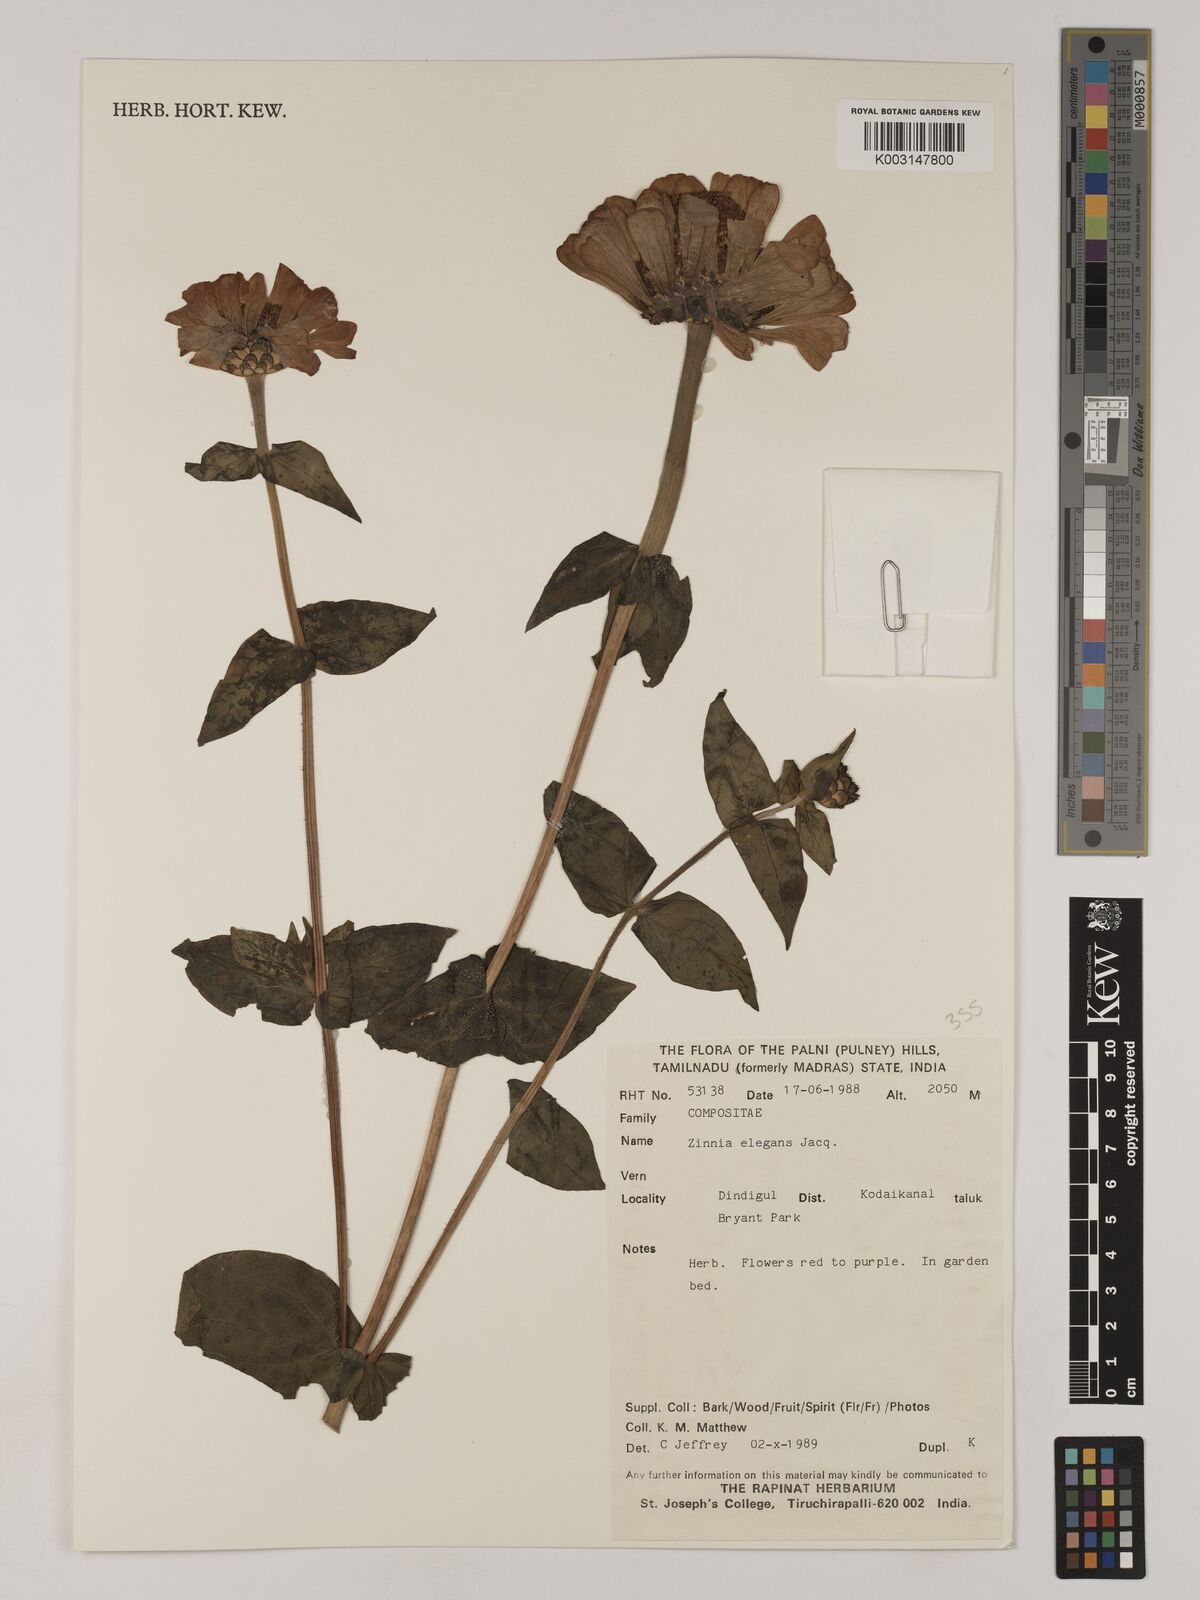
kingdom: Plantae
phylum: Tracheophyta
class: Magnoliopsida
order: Asterales
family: Asteraceae
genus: Zinnia
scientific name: Zinnia elegans
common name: Youth-and-age
